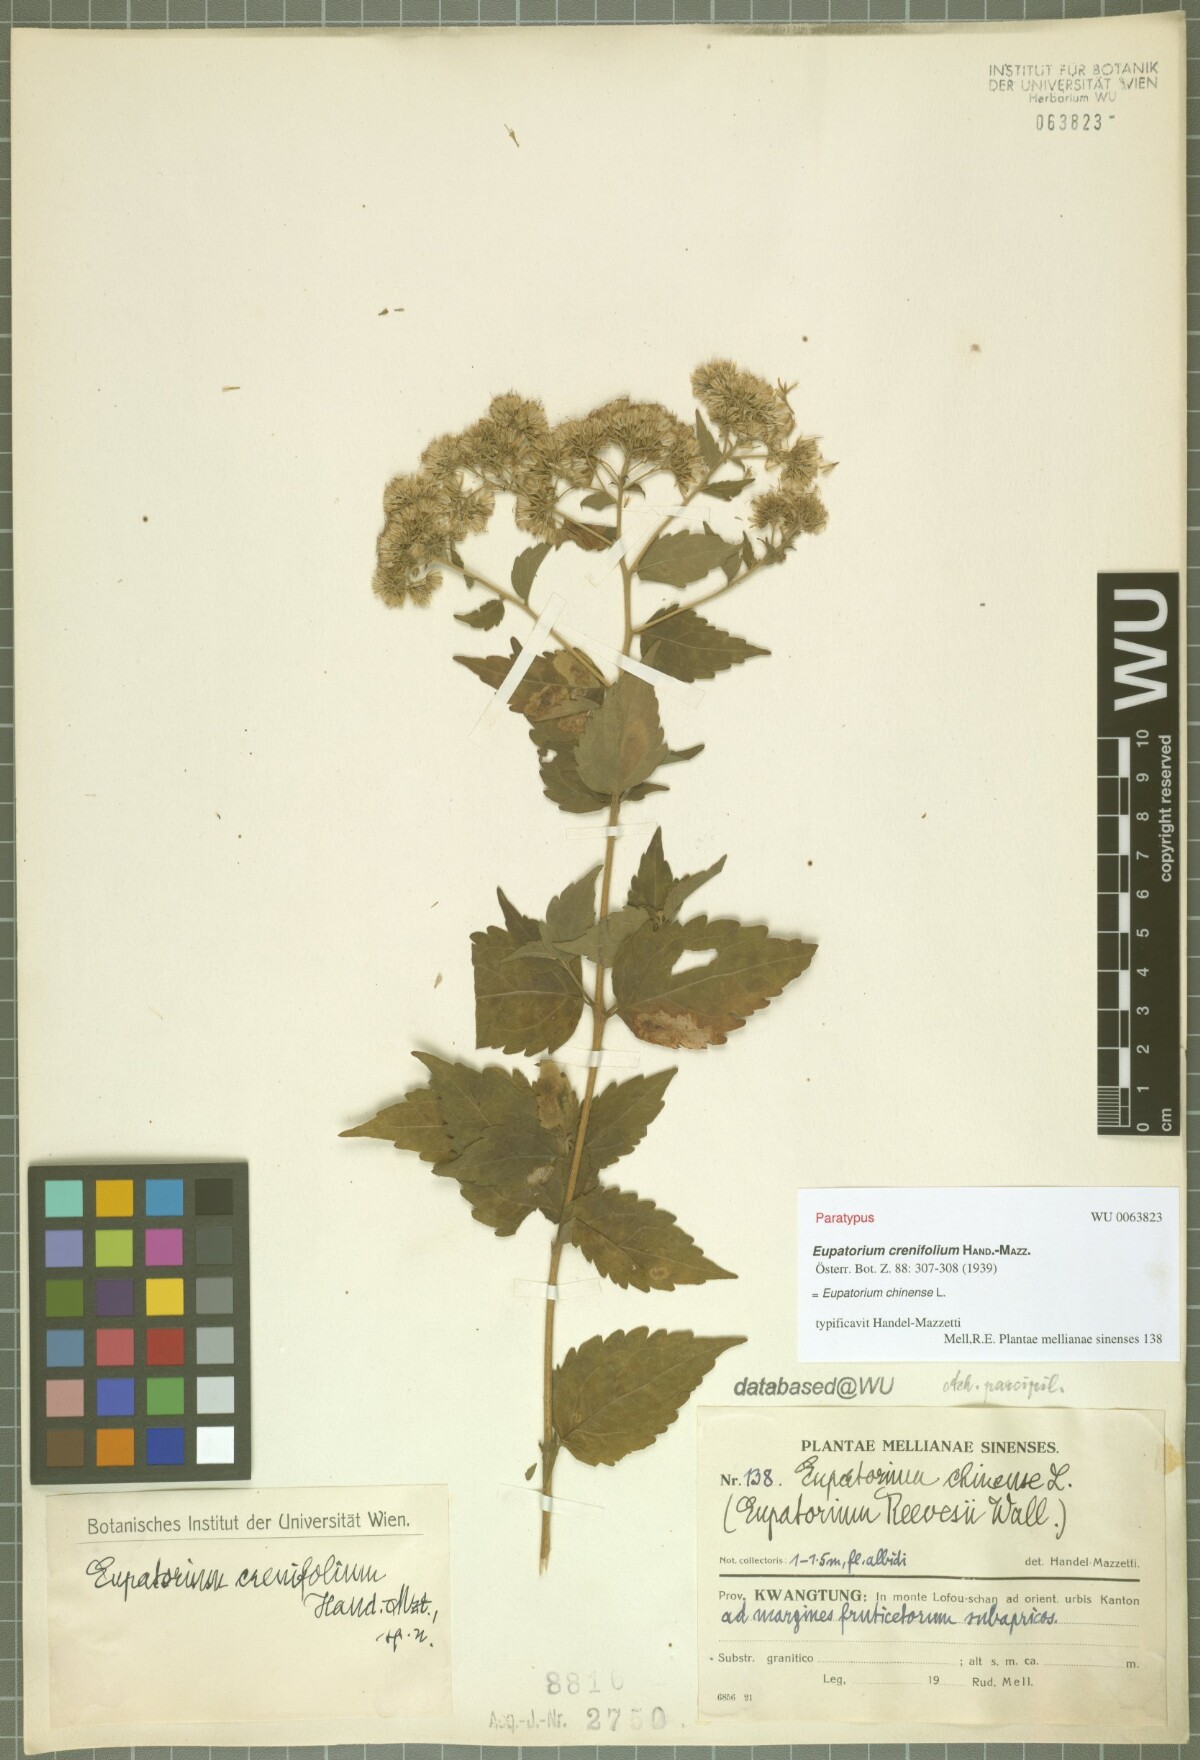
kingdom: Plantae
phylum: Tracheophyta
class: Magnoliopsida
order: Asterales
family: Asteraceae
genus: Eupatorium
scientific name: Eupatorium crenifolium
